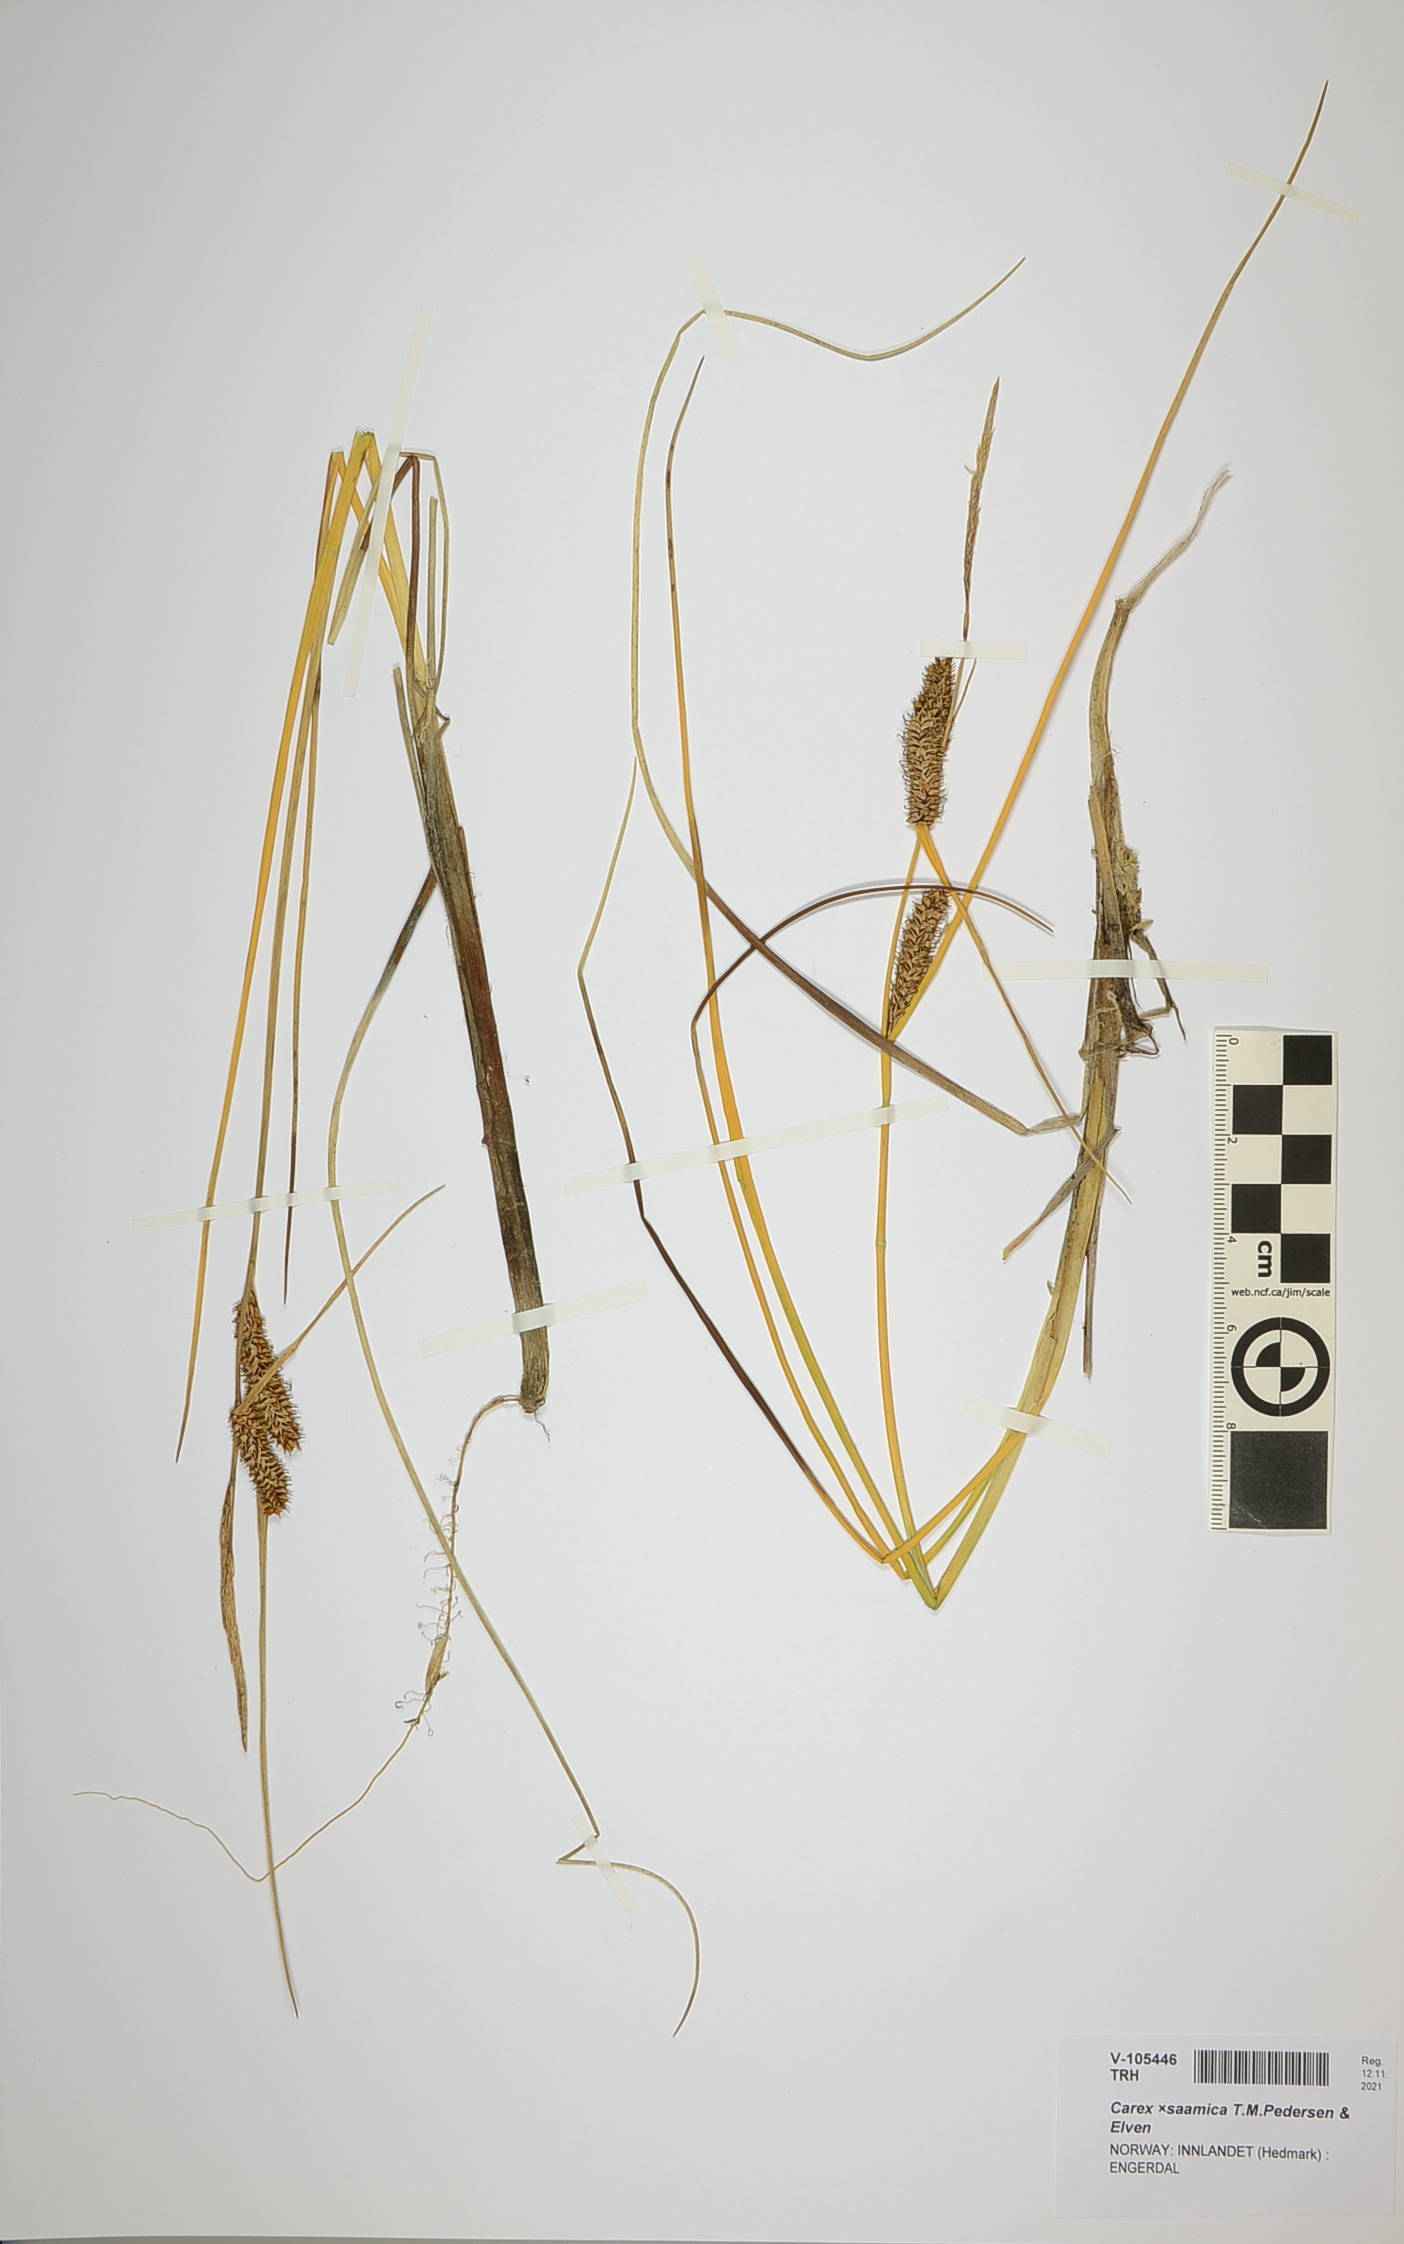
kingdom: Plantae
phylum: Tracheophyta
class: Liliopsida
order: Poales
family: Cyperaceae
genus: Carex
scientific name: Carex saamica
